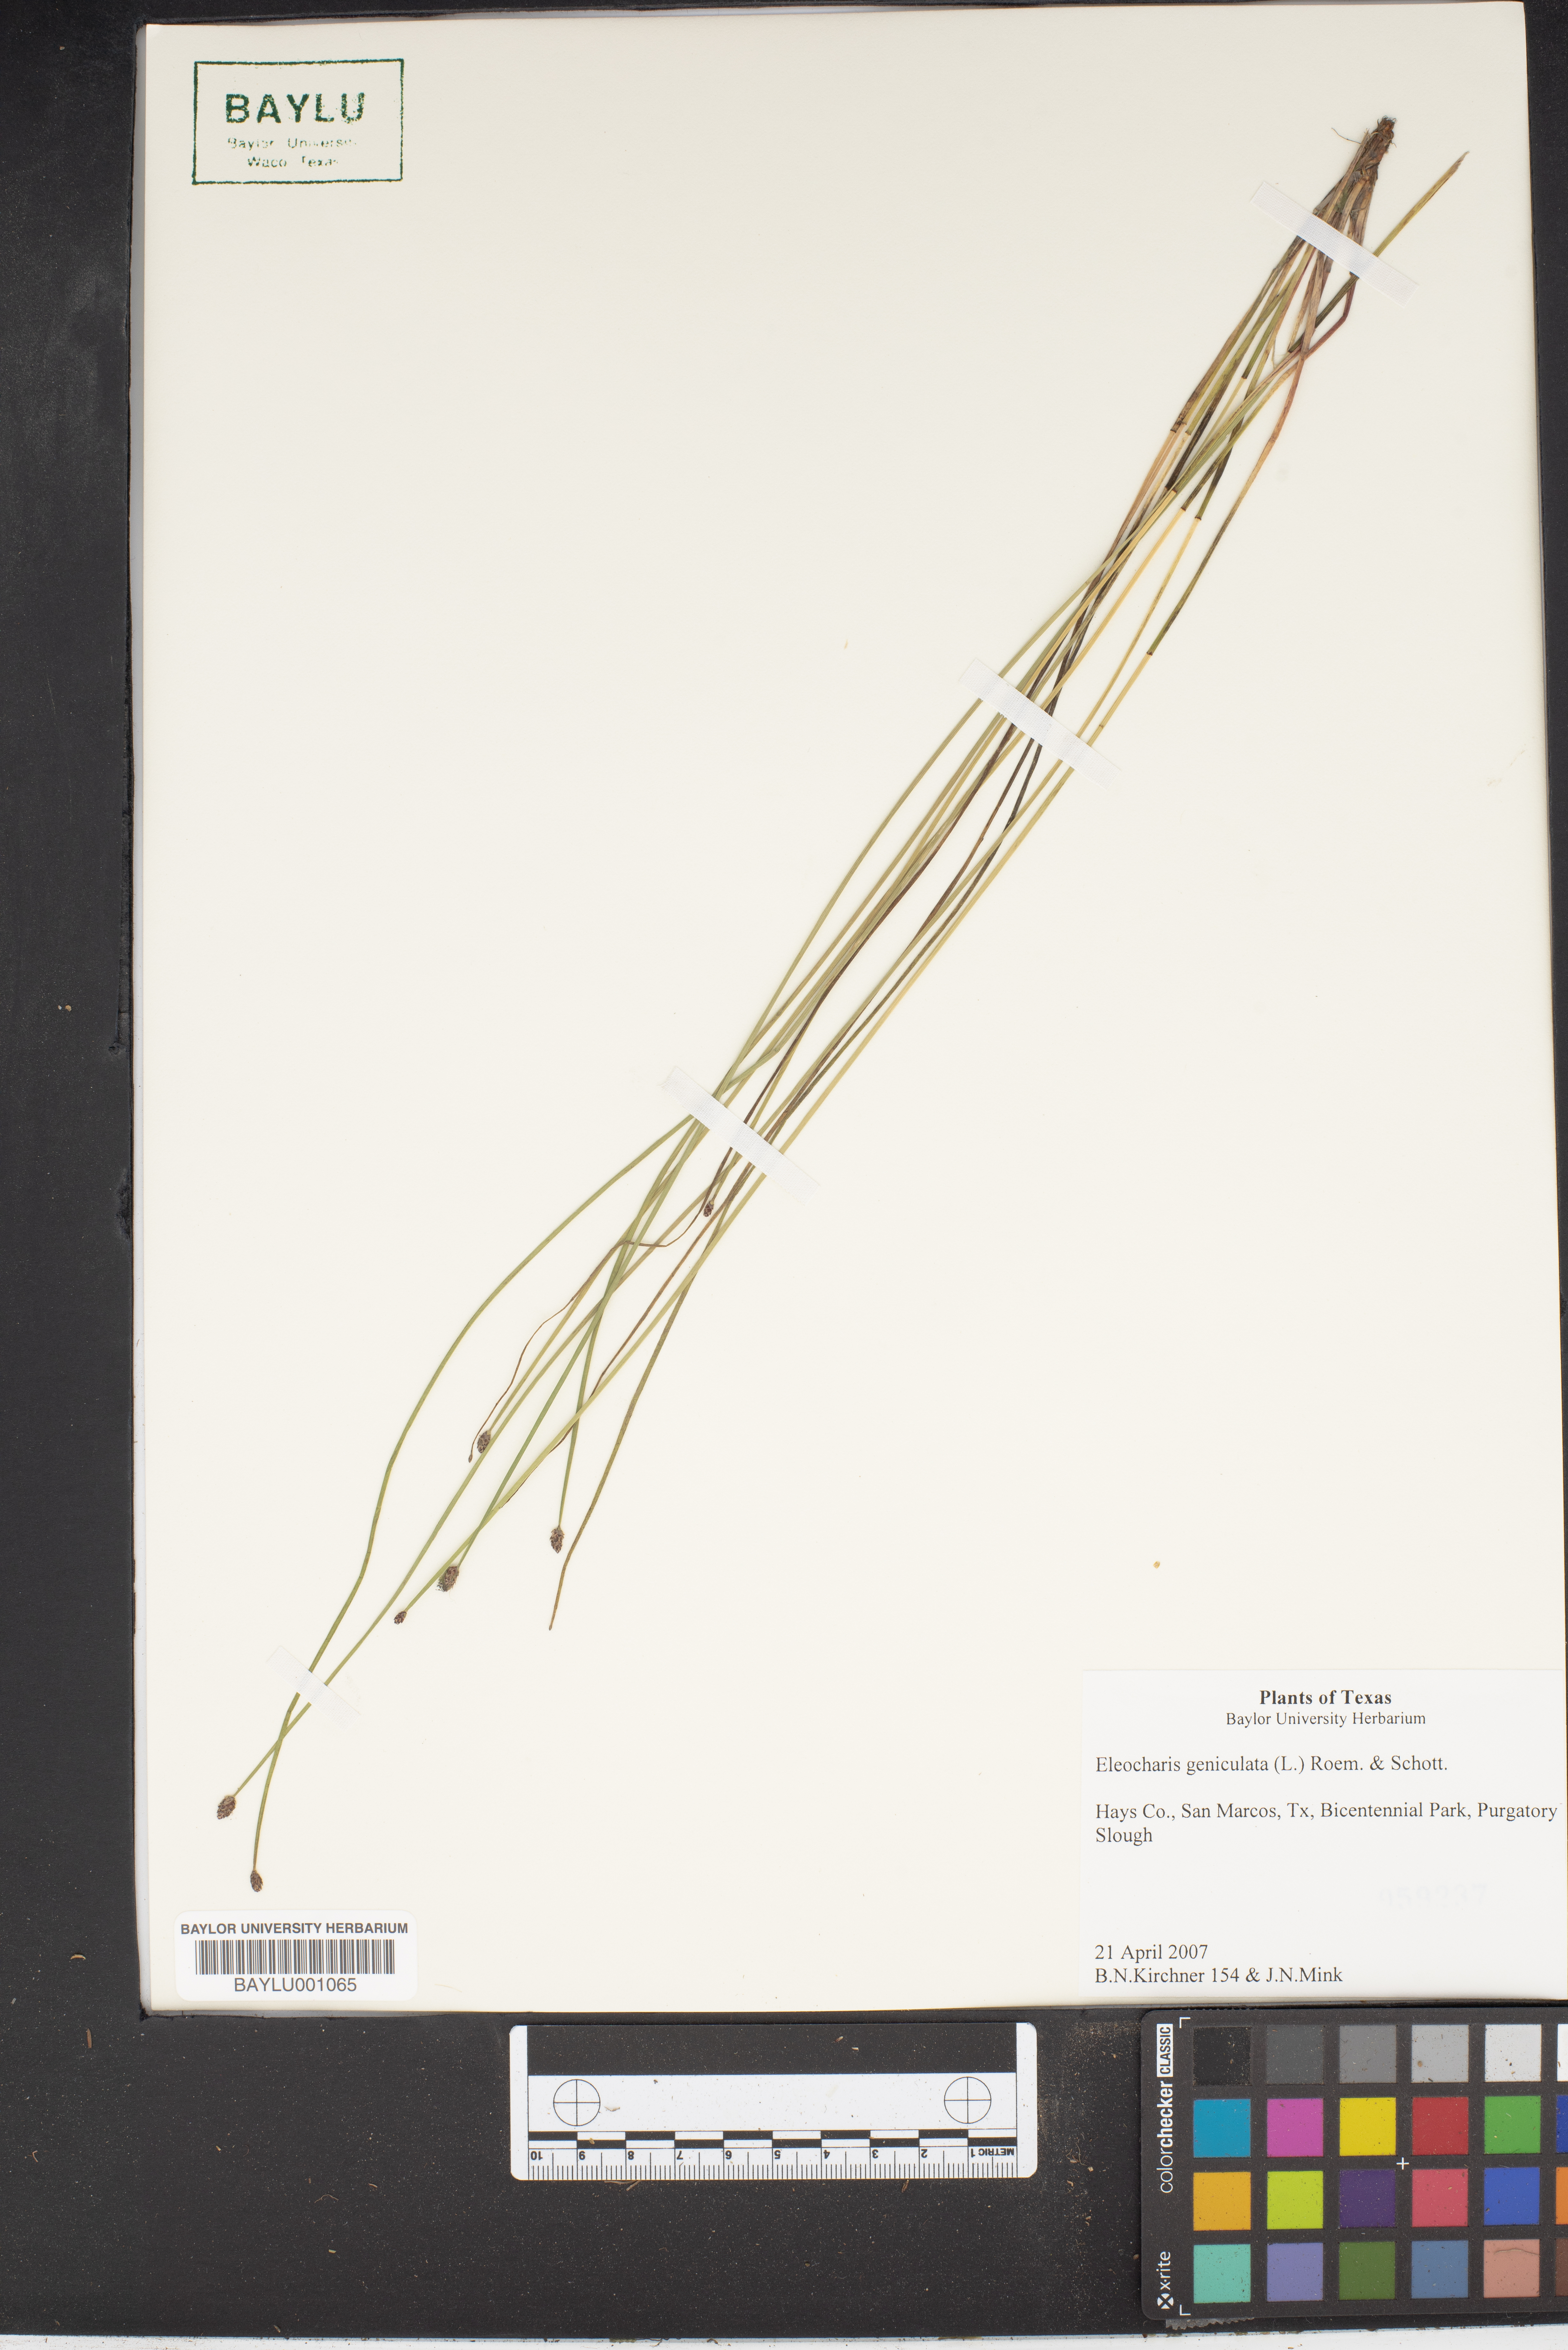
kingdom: Plantae
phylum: Tracheophyta
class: Liliopsida
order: Poales
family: Cyperaceae
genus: Eleocharis
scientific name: Eleocharis geniculata
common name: Canada spikesedge
